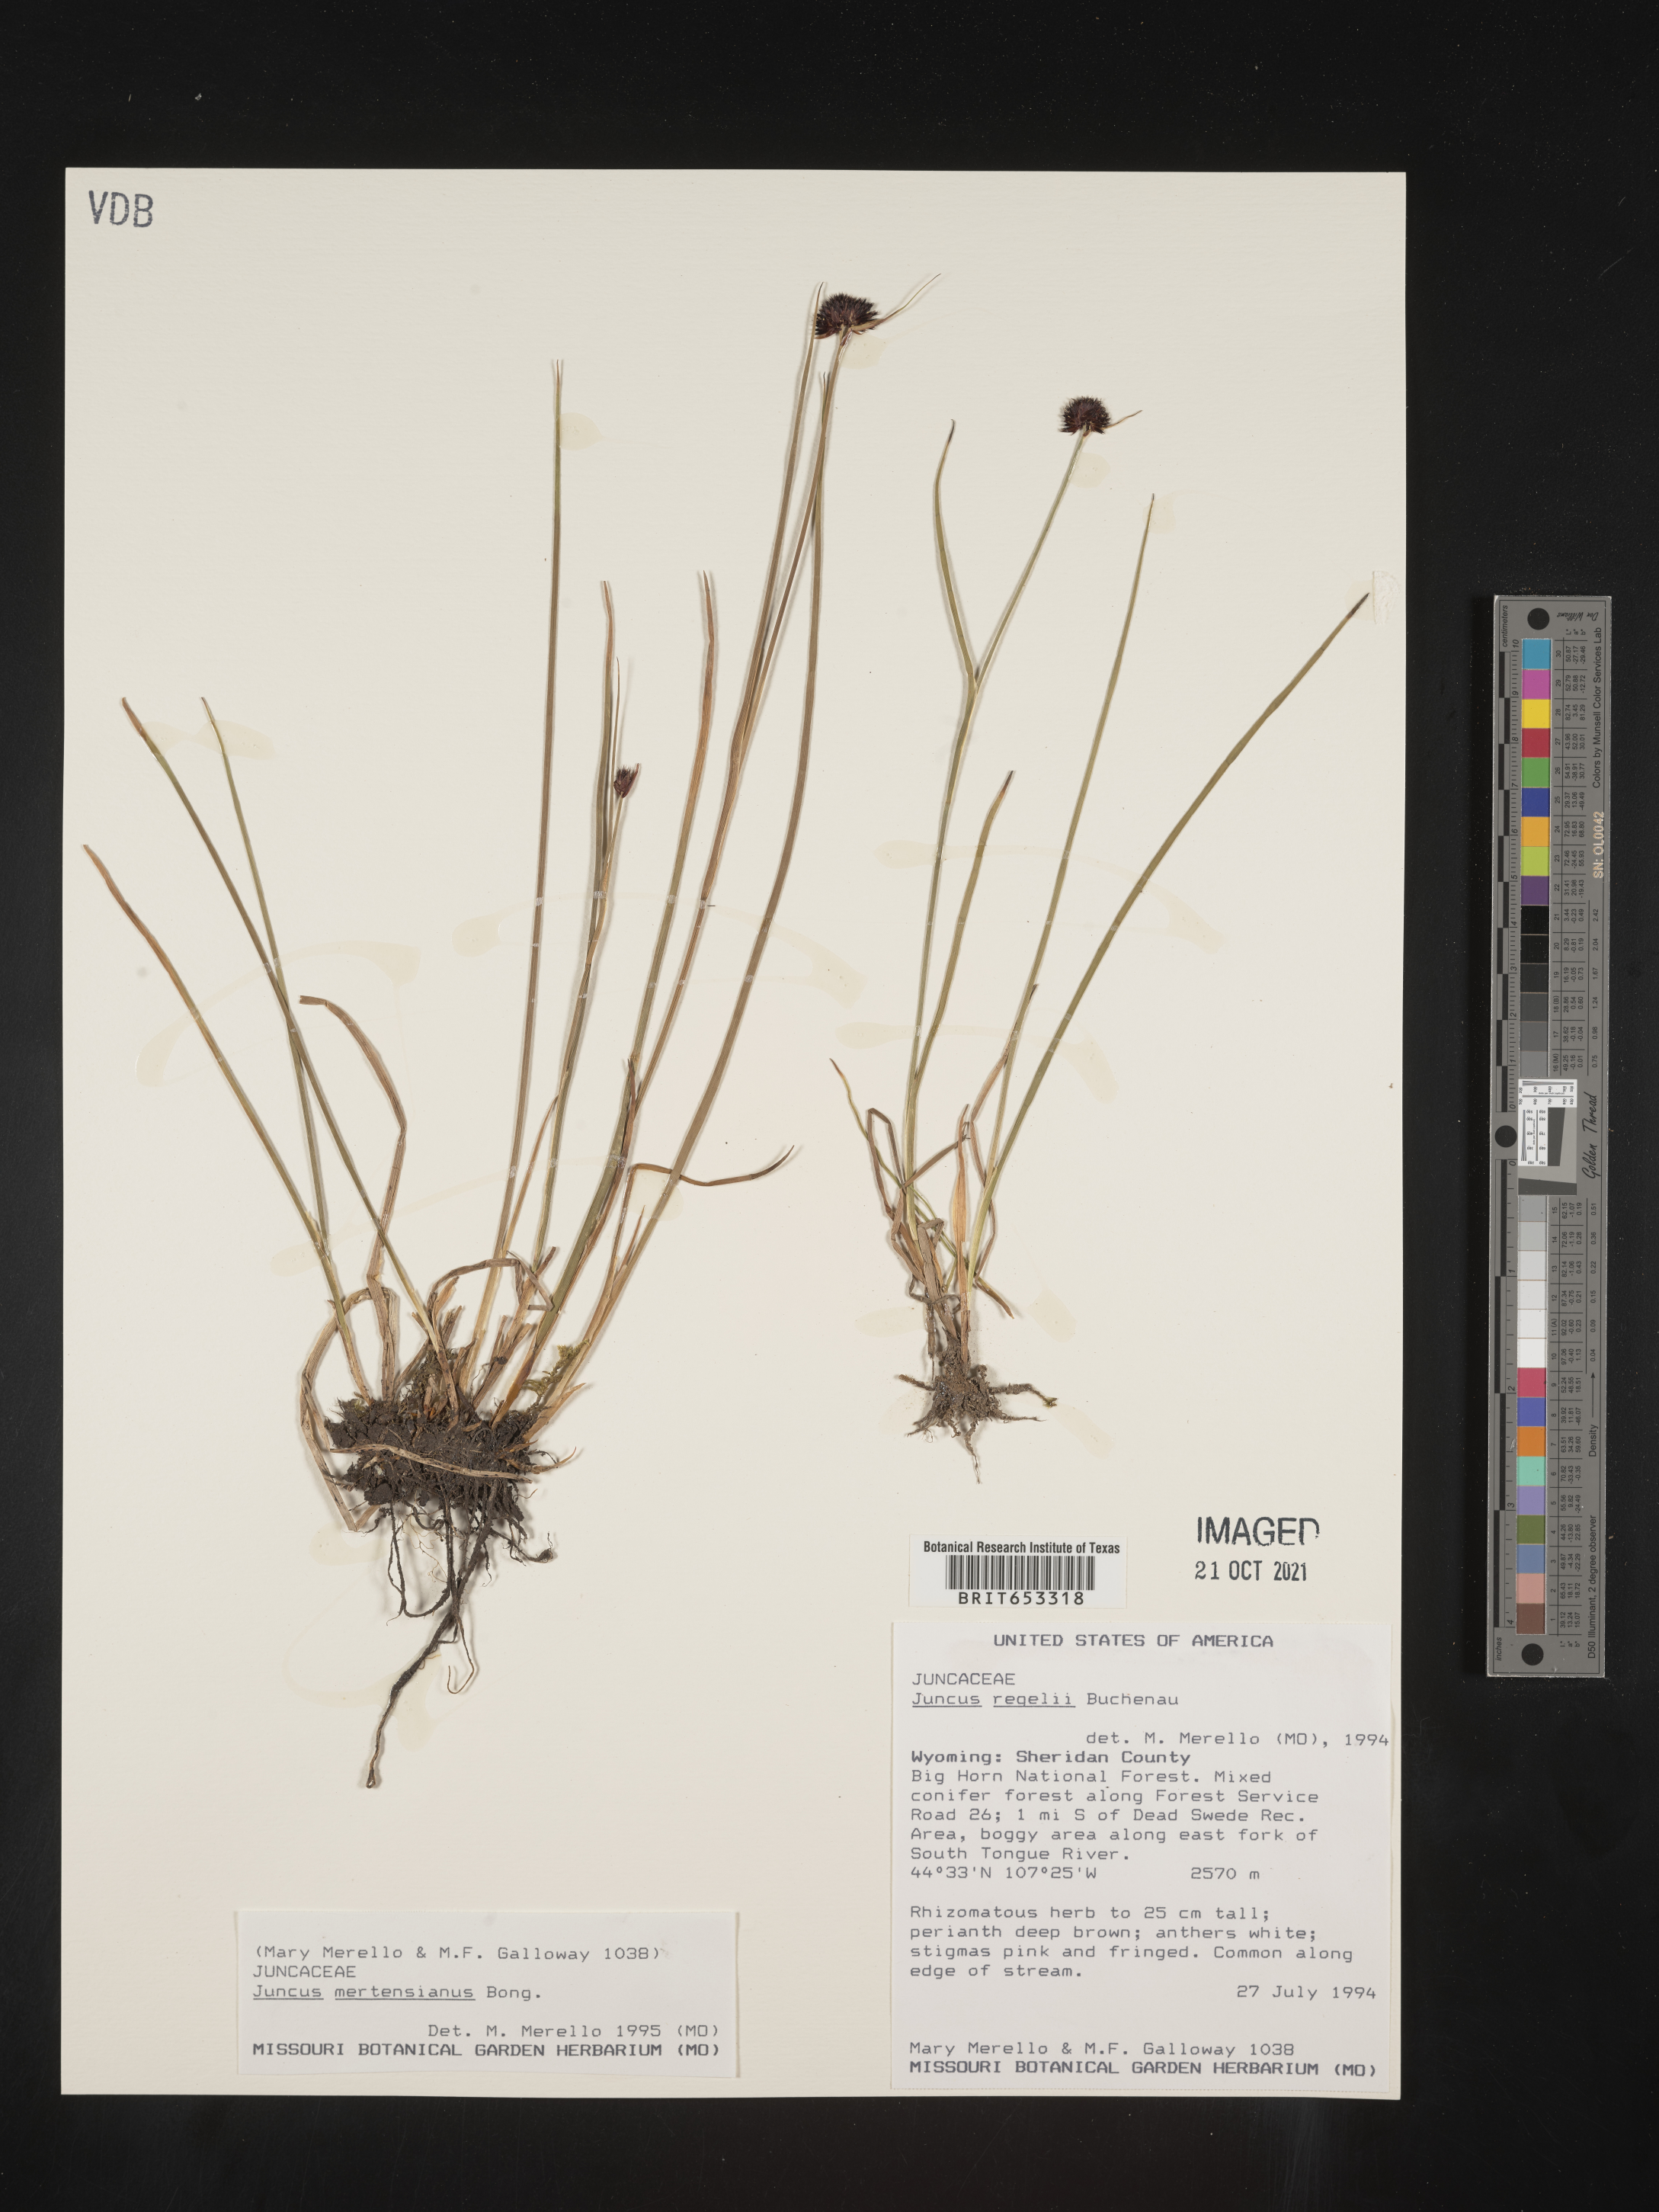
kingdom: Plantae
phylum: Tracheophyta
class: Liliopsida
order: Poales
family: Juncaceae
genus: Juncus
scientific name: Juncus mertensianus
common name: Merten's rush
